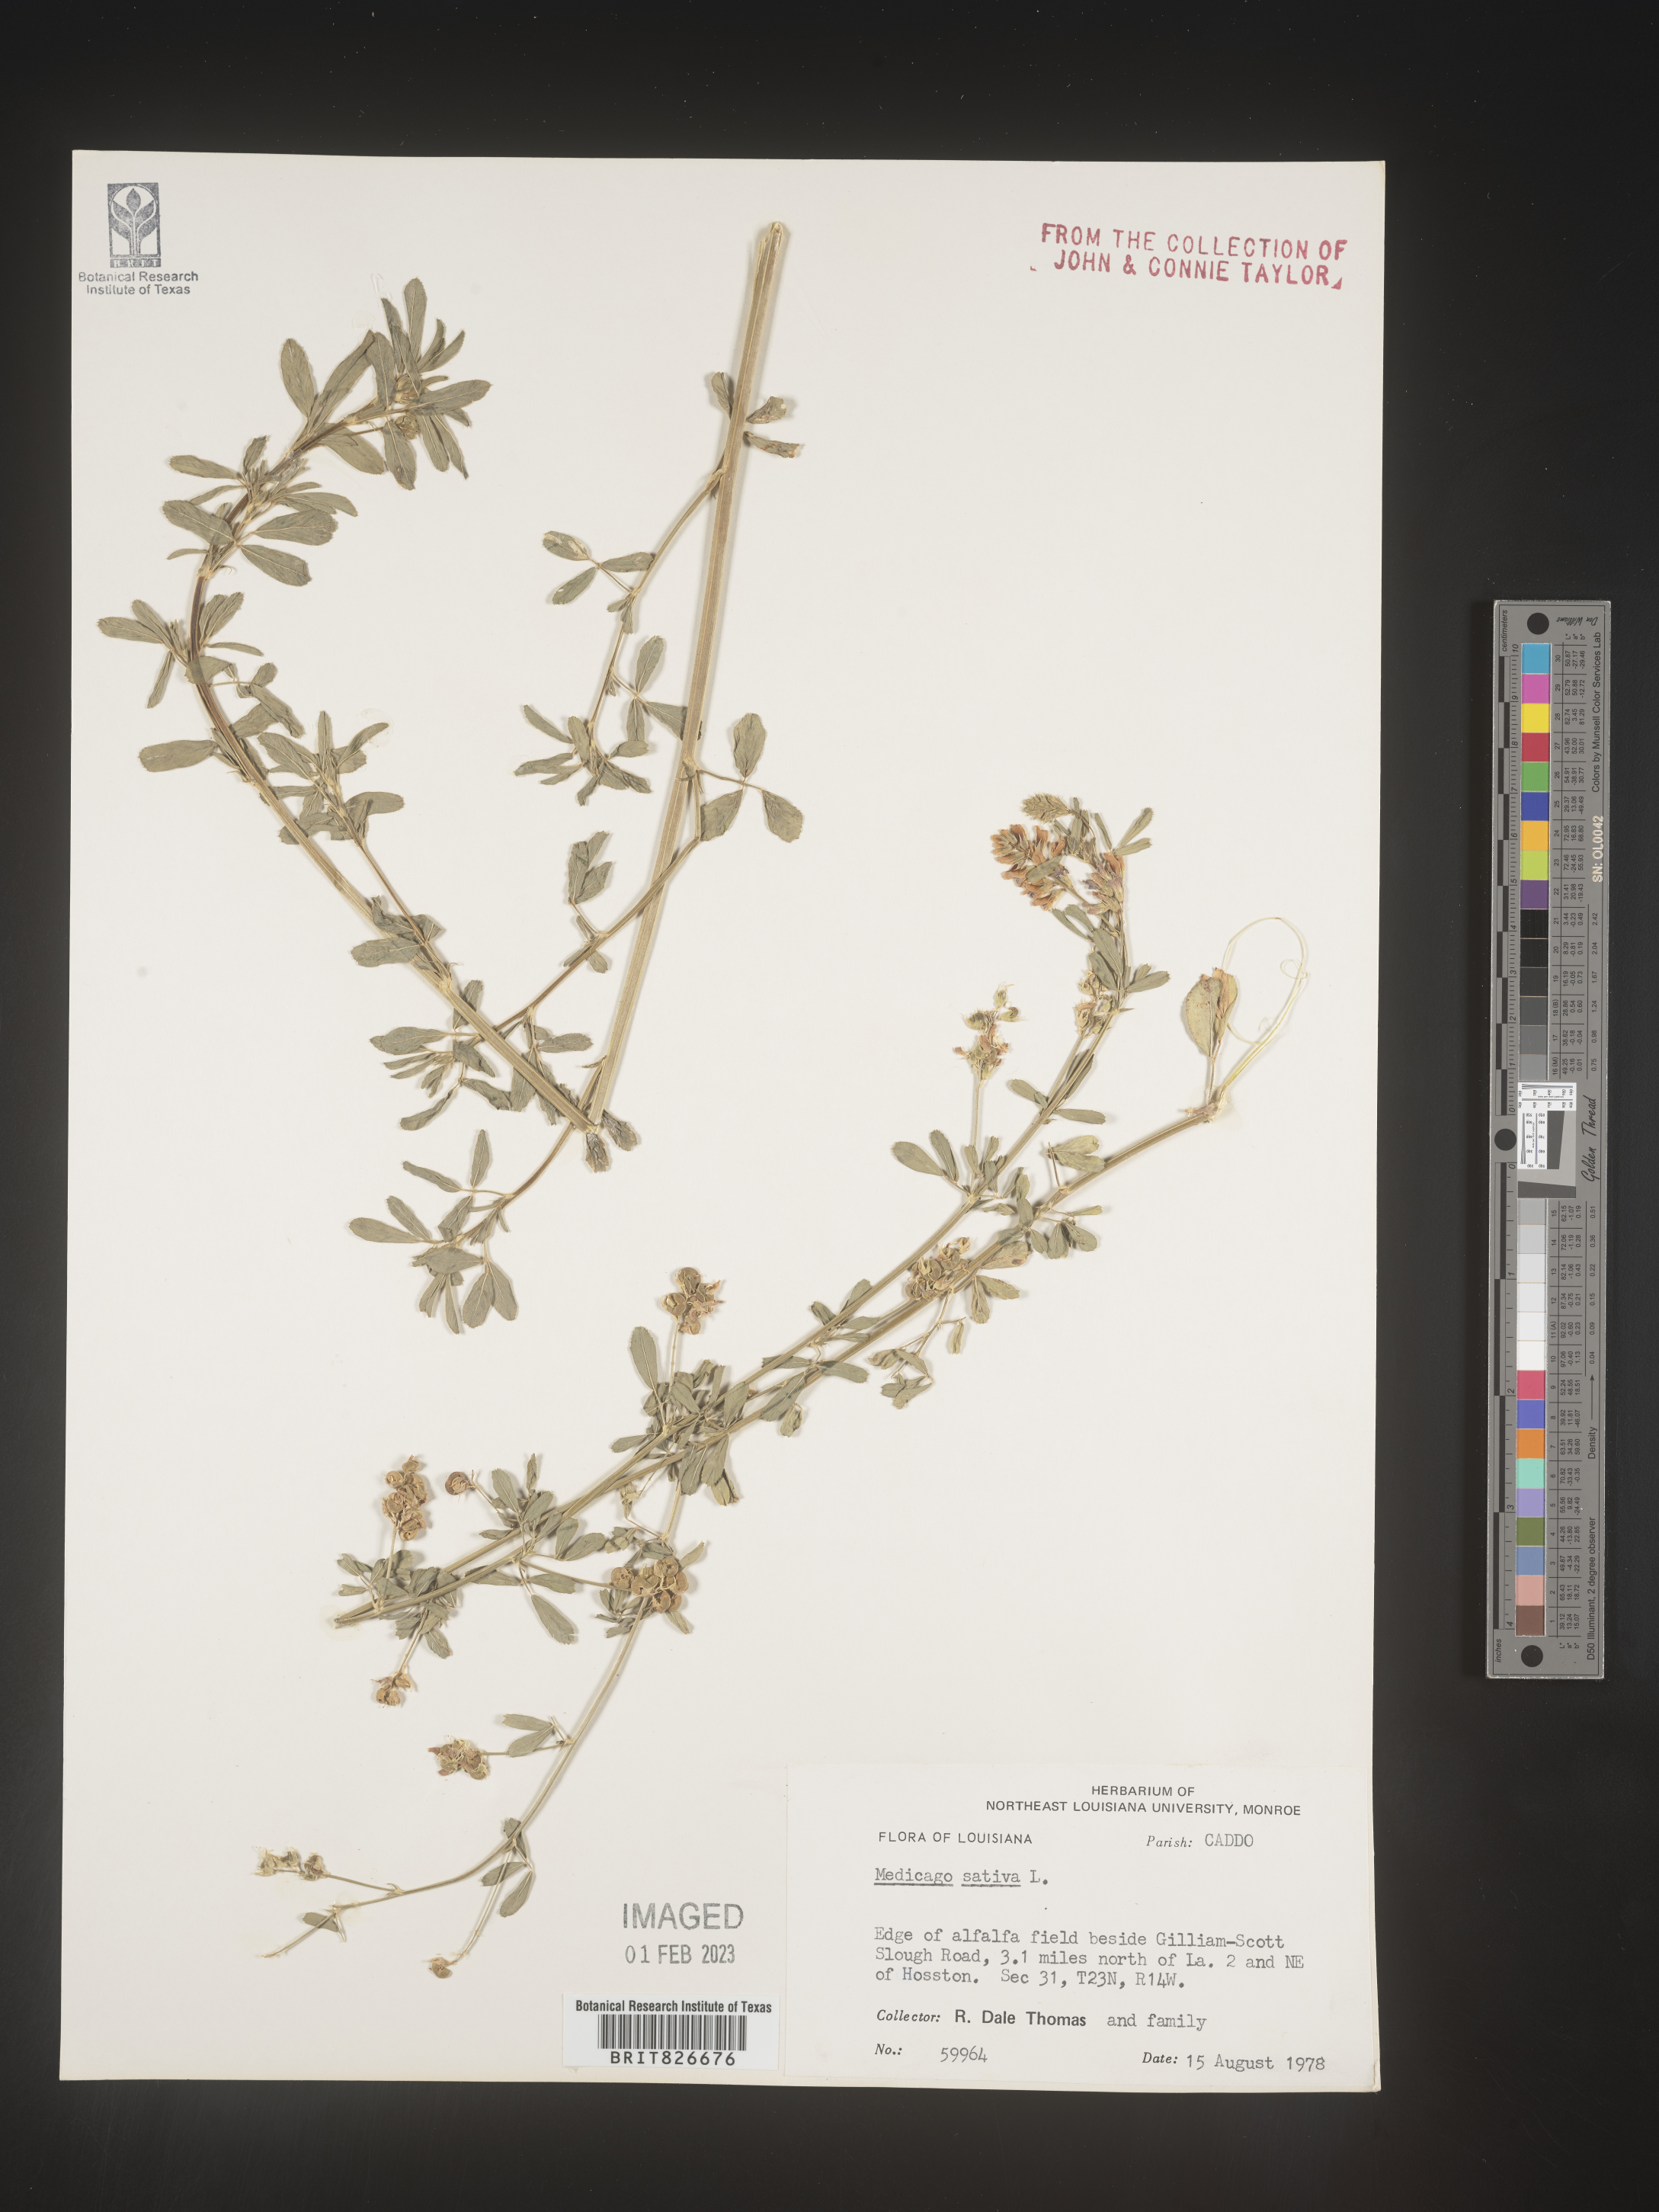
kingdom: Plantae
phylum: Tracheophyta
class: Magnoliopsida
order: Fabales
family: Fabaceae
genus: Medicago
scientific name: Medicago sativa
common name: Alfalfa
